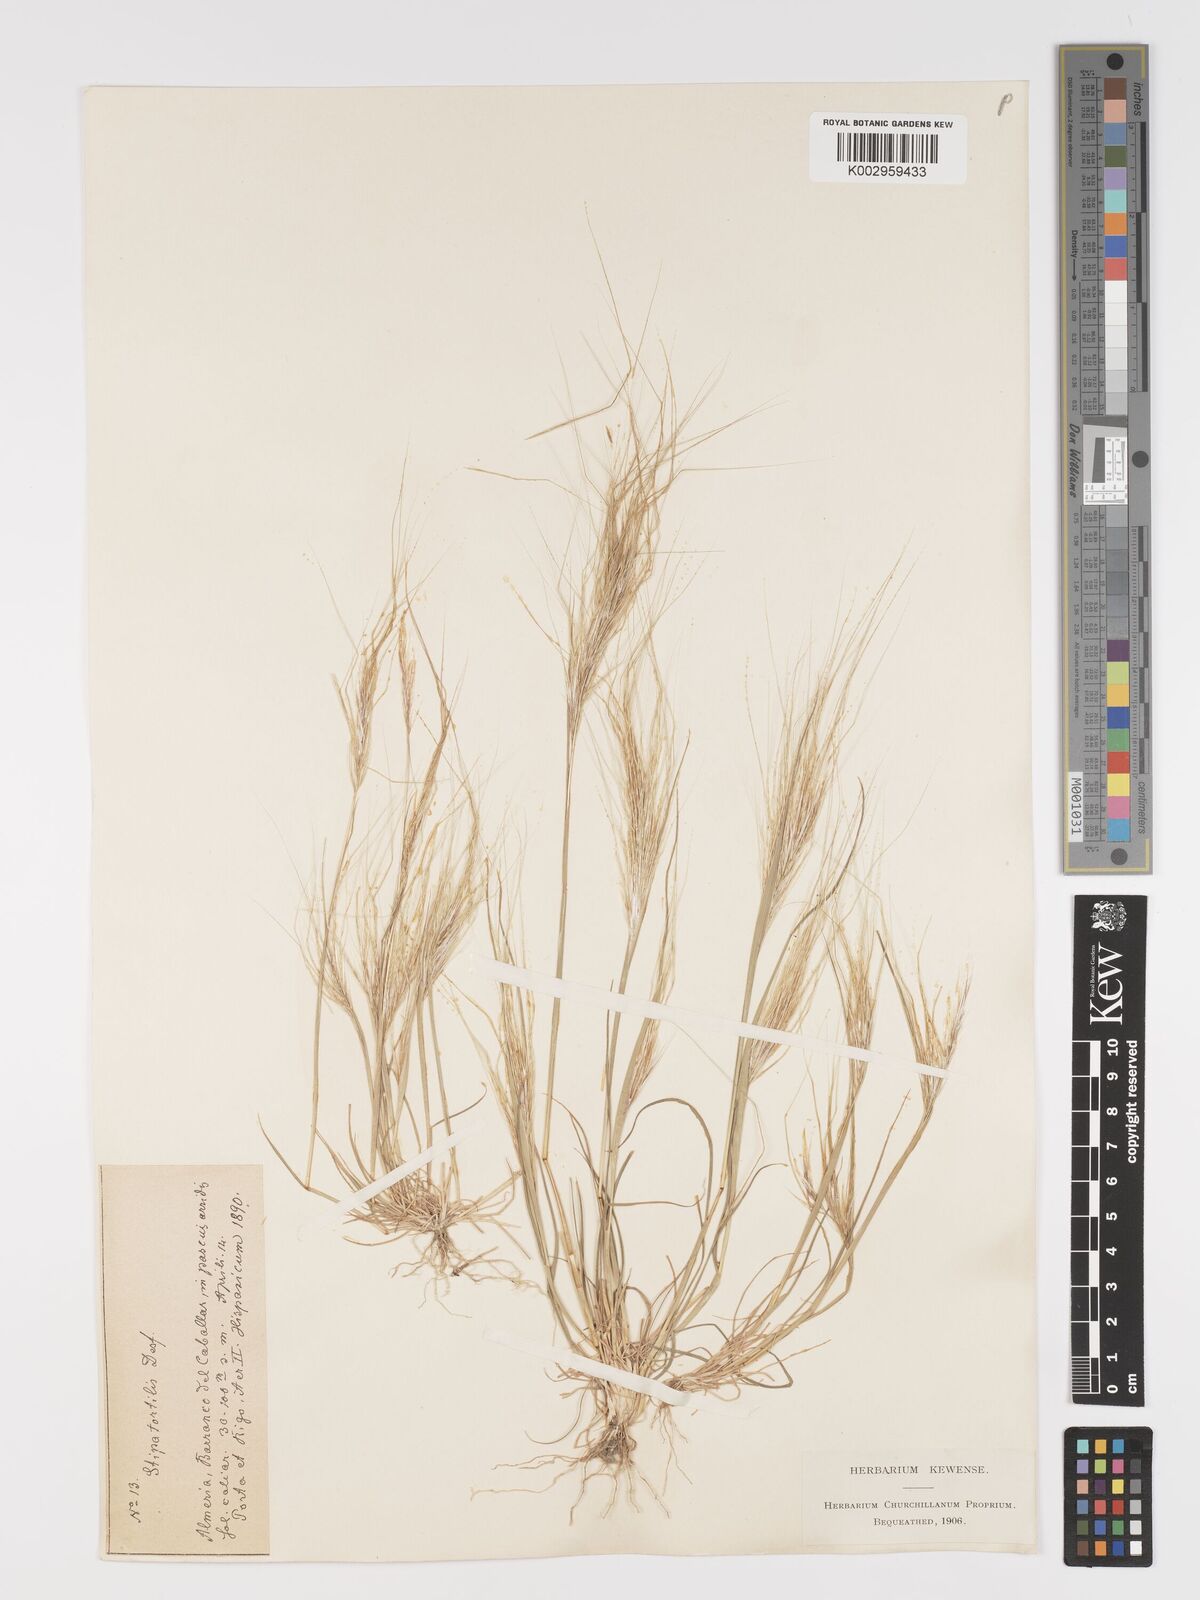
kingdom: Plantae
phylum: Tracheophyta
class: Liliopsida
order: Poales
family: Poaceae
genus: Stipa
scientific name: Stipa
